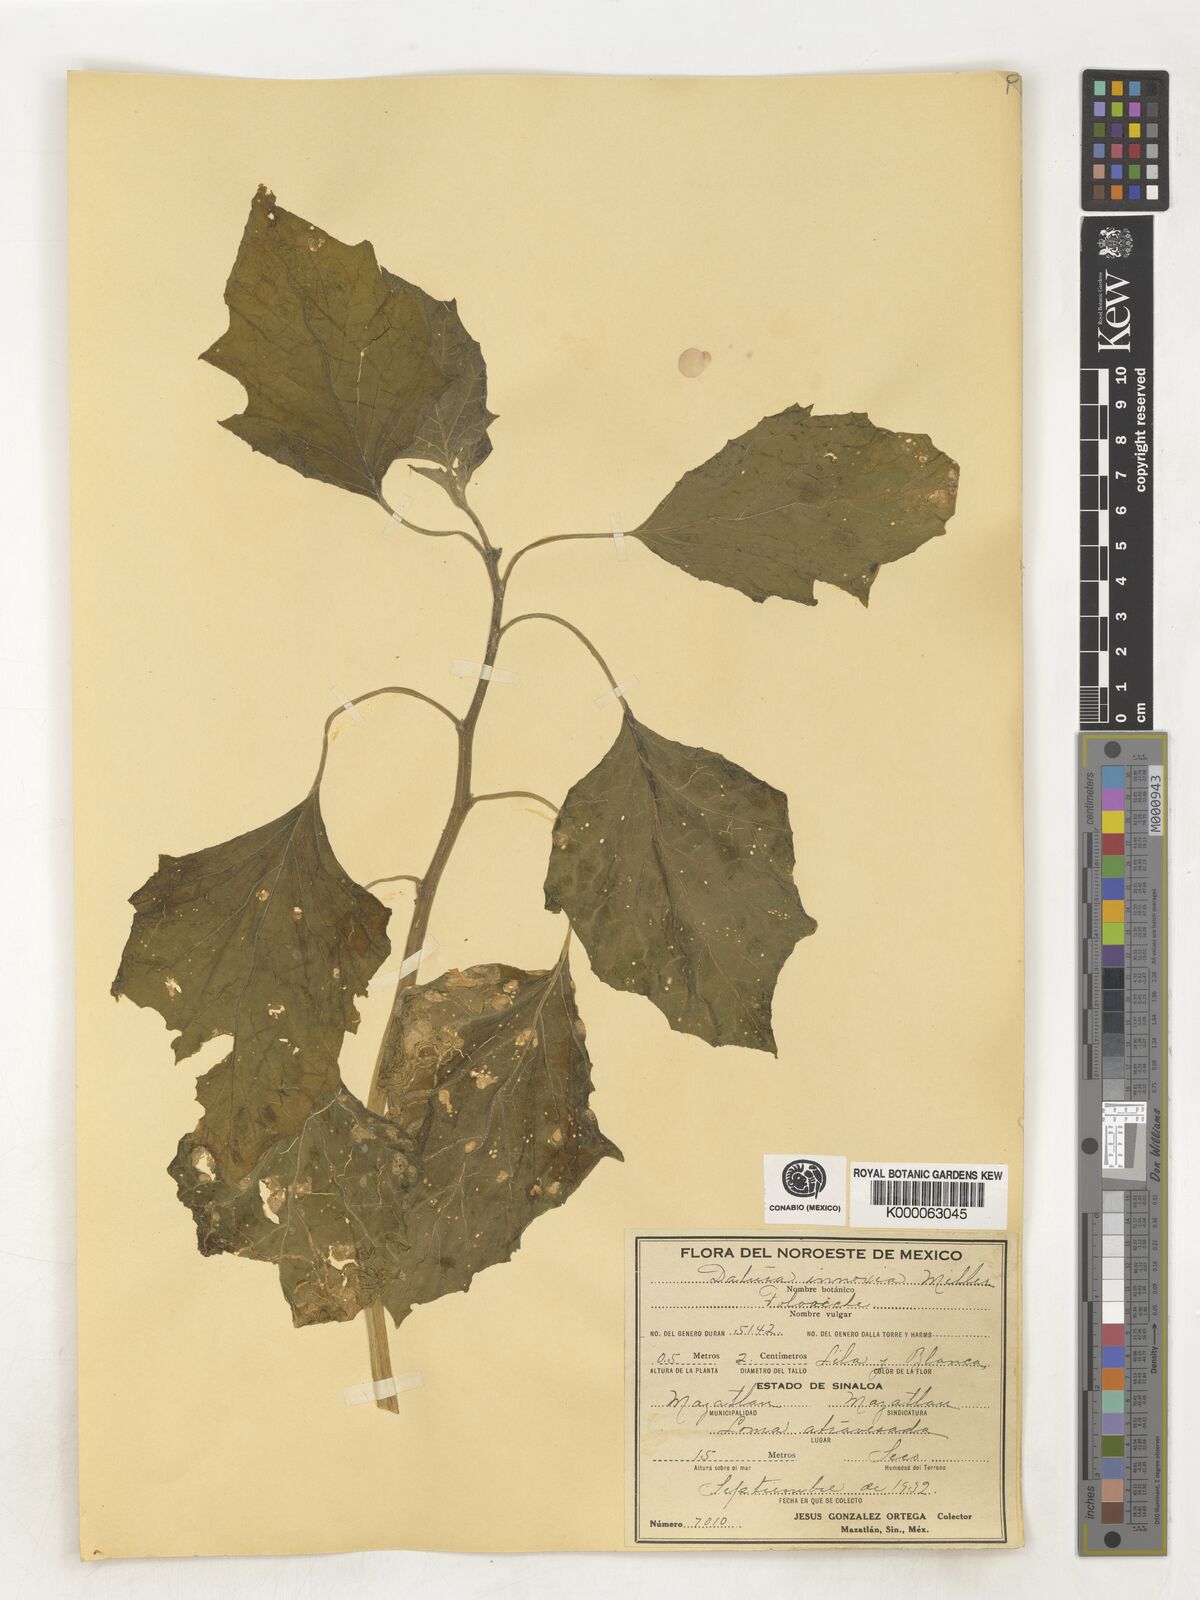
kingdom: Plantae
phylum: Tracheophyta
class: Magnoliopsida
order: Solanales
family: Solanaceae
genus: Datura
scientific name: Datura
